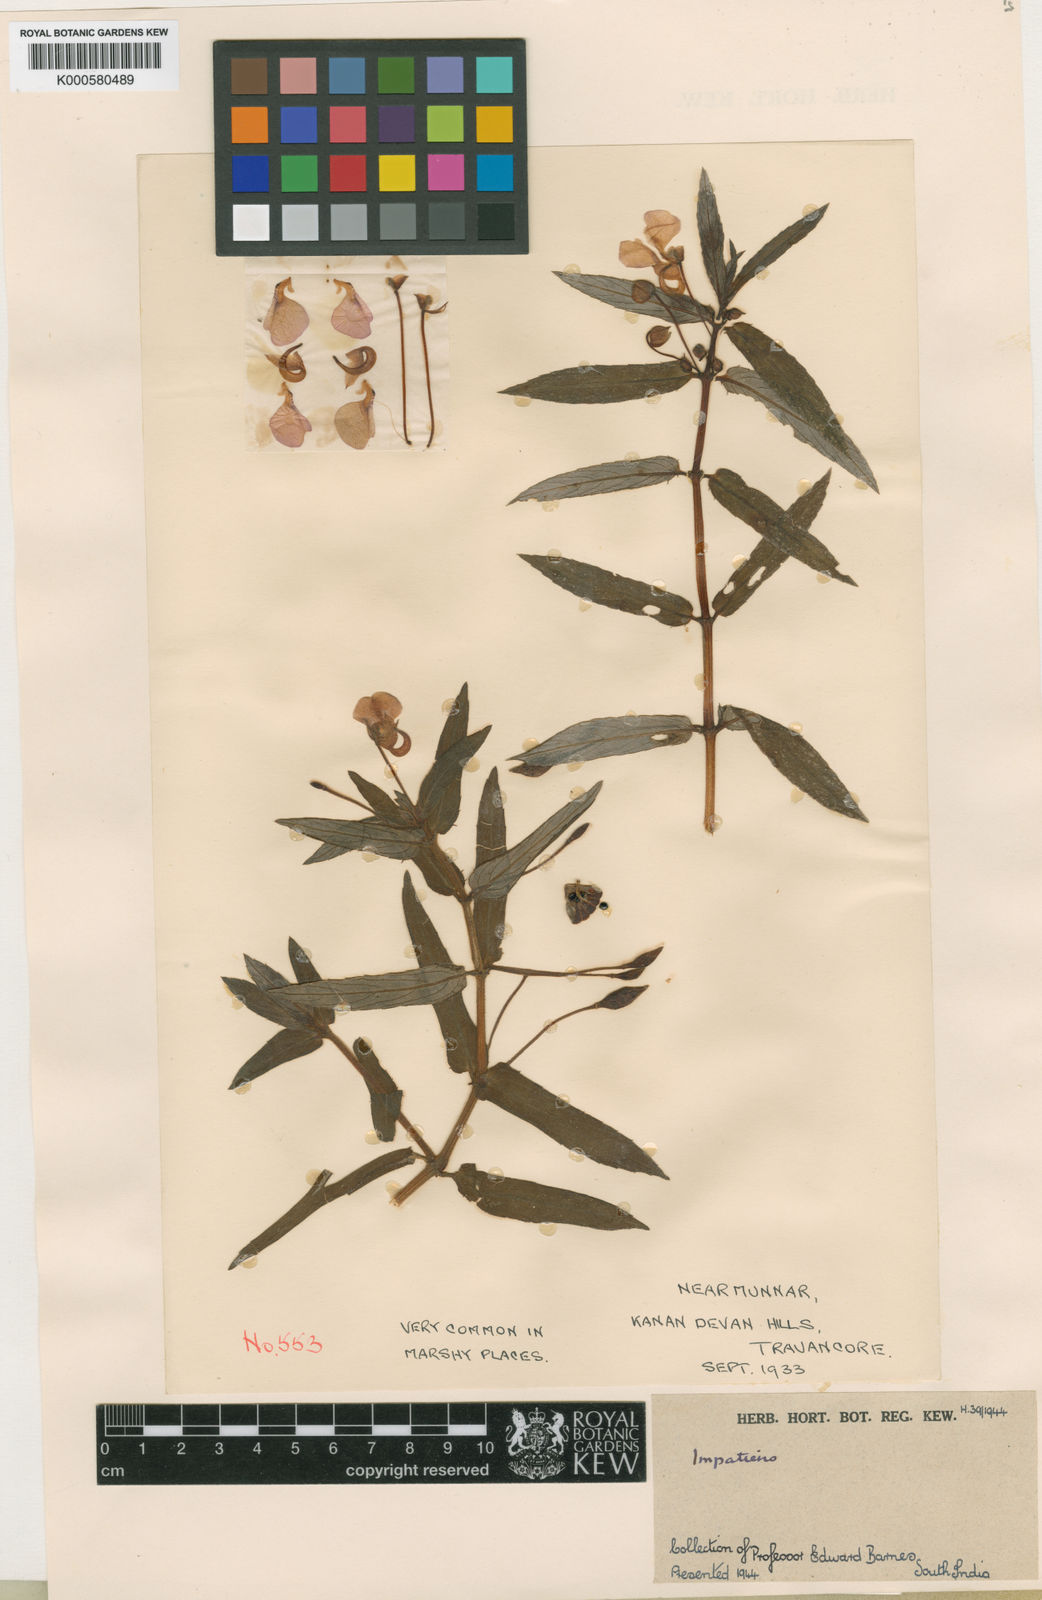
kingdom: Plantae
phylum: Tracheophyta
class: Magnoliopsida
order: Ericales
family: Balsaminaceae
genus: Impatiens
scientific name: Impatiens chinensis
